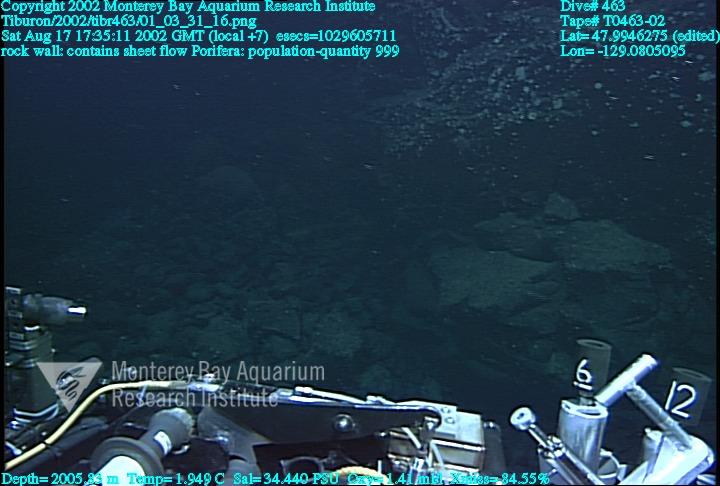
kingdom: Animalia
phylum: Porifera
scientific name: Porifera
